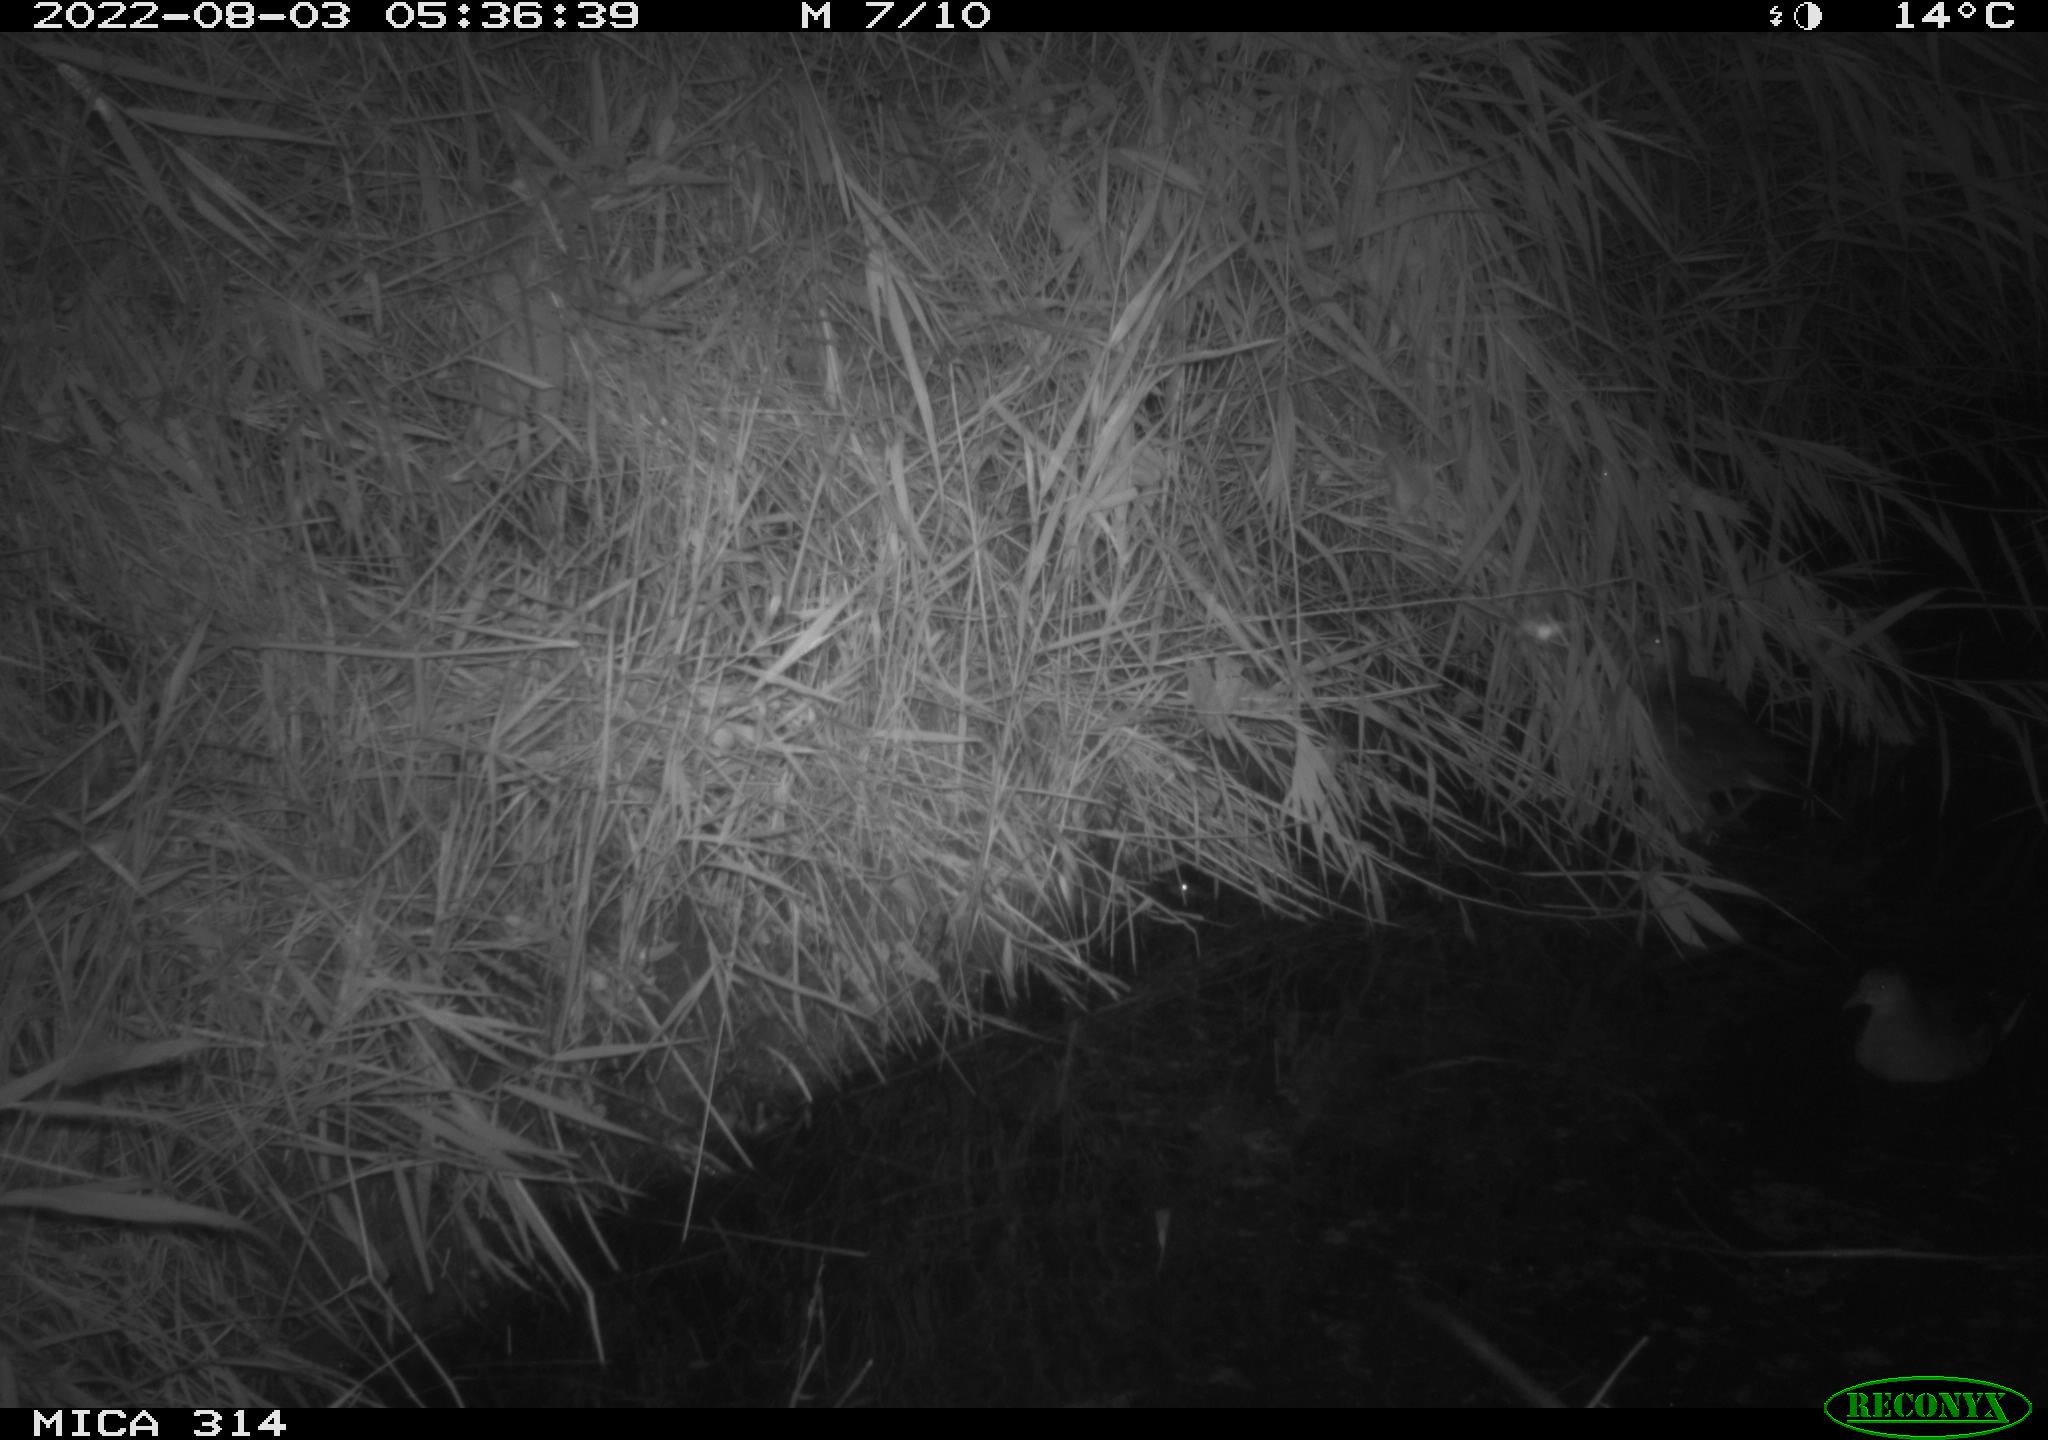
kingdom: Animalia
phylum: Chordata
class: Aves
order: Gruiformes
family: Rallidae
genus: Gallinula
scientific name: Gallinula chloropus
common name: Common moorhen
